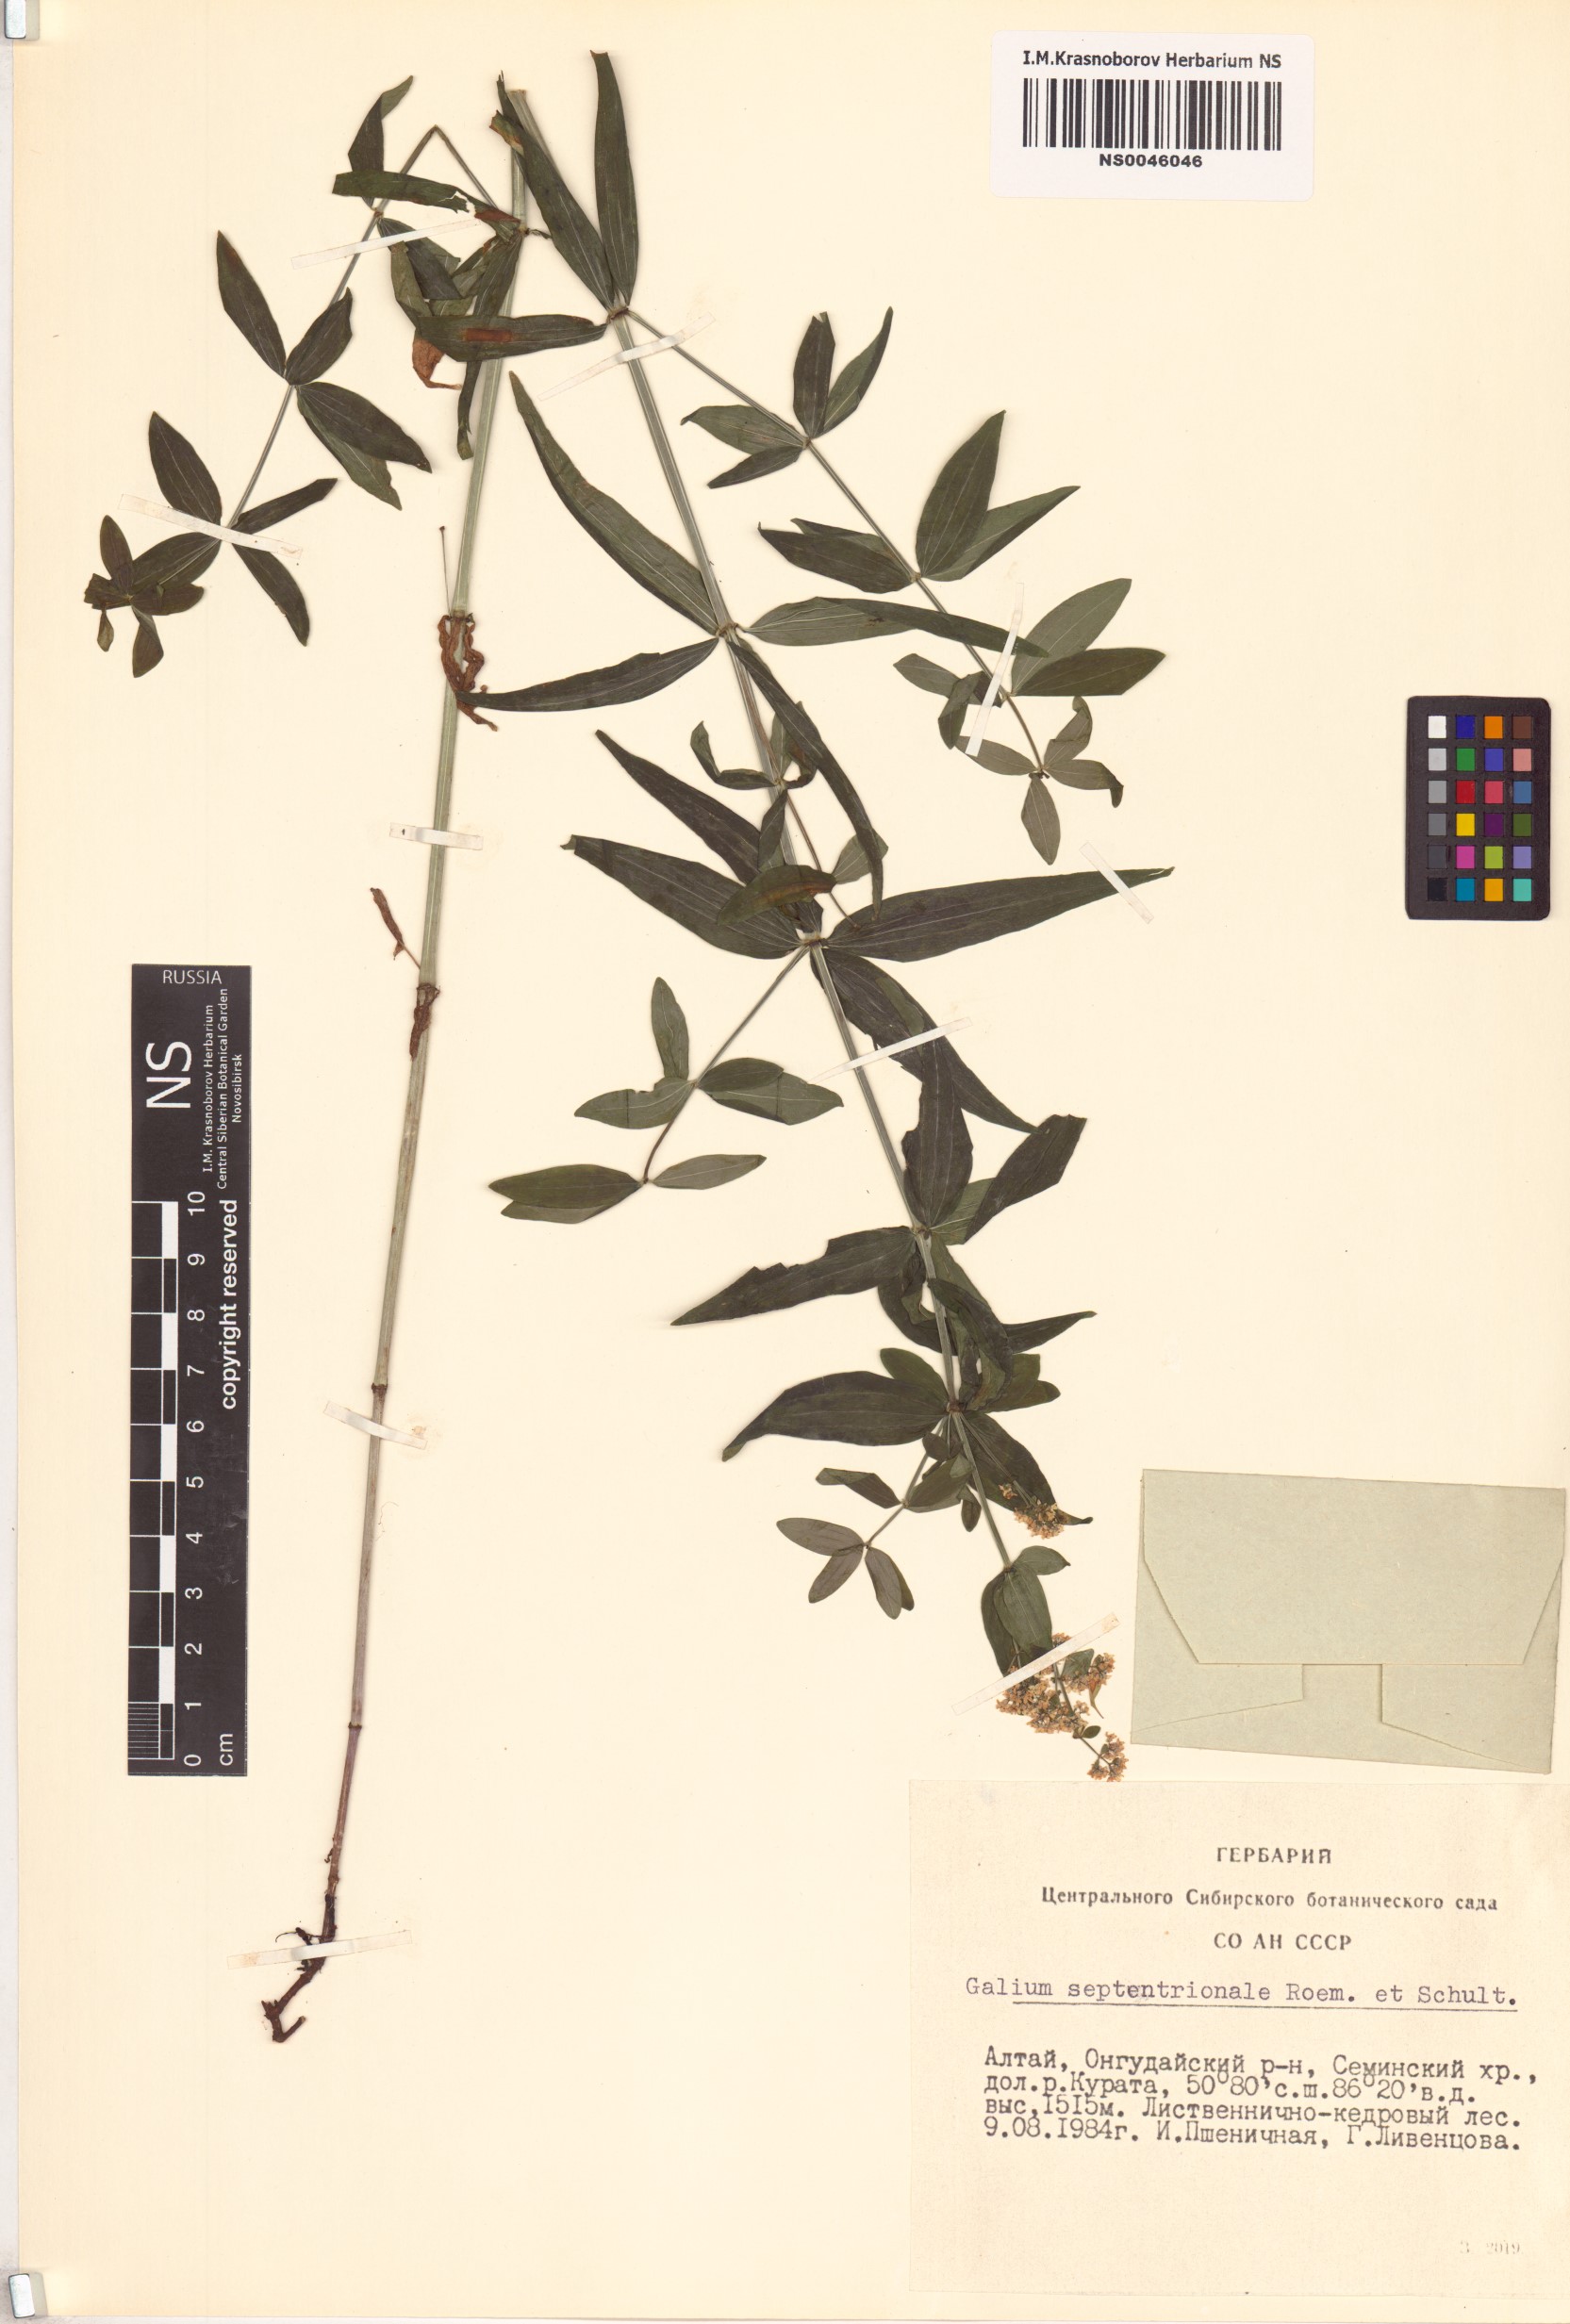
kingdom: Plantae
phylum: Tracheophyta
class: Magnoliopsida
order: Gentianales
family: Rubiaceae
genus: Galium
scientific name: Galium boreale
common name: Northern bedstraw
